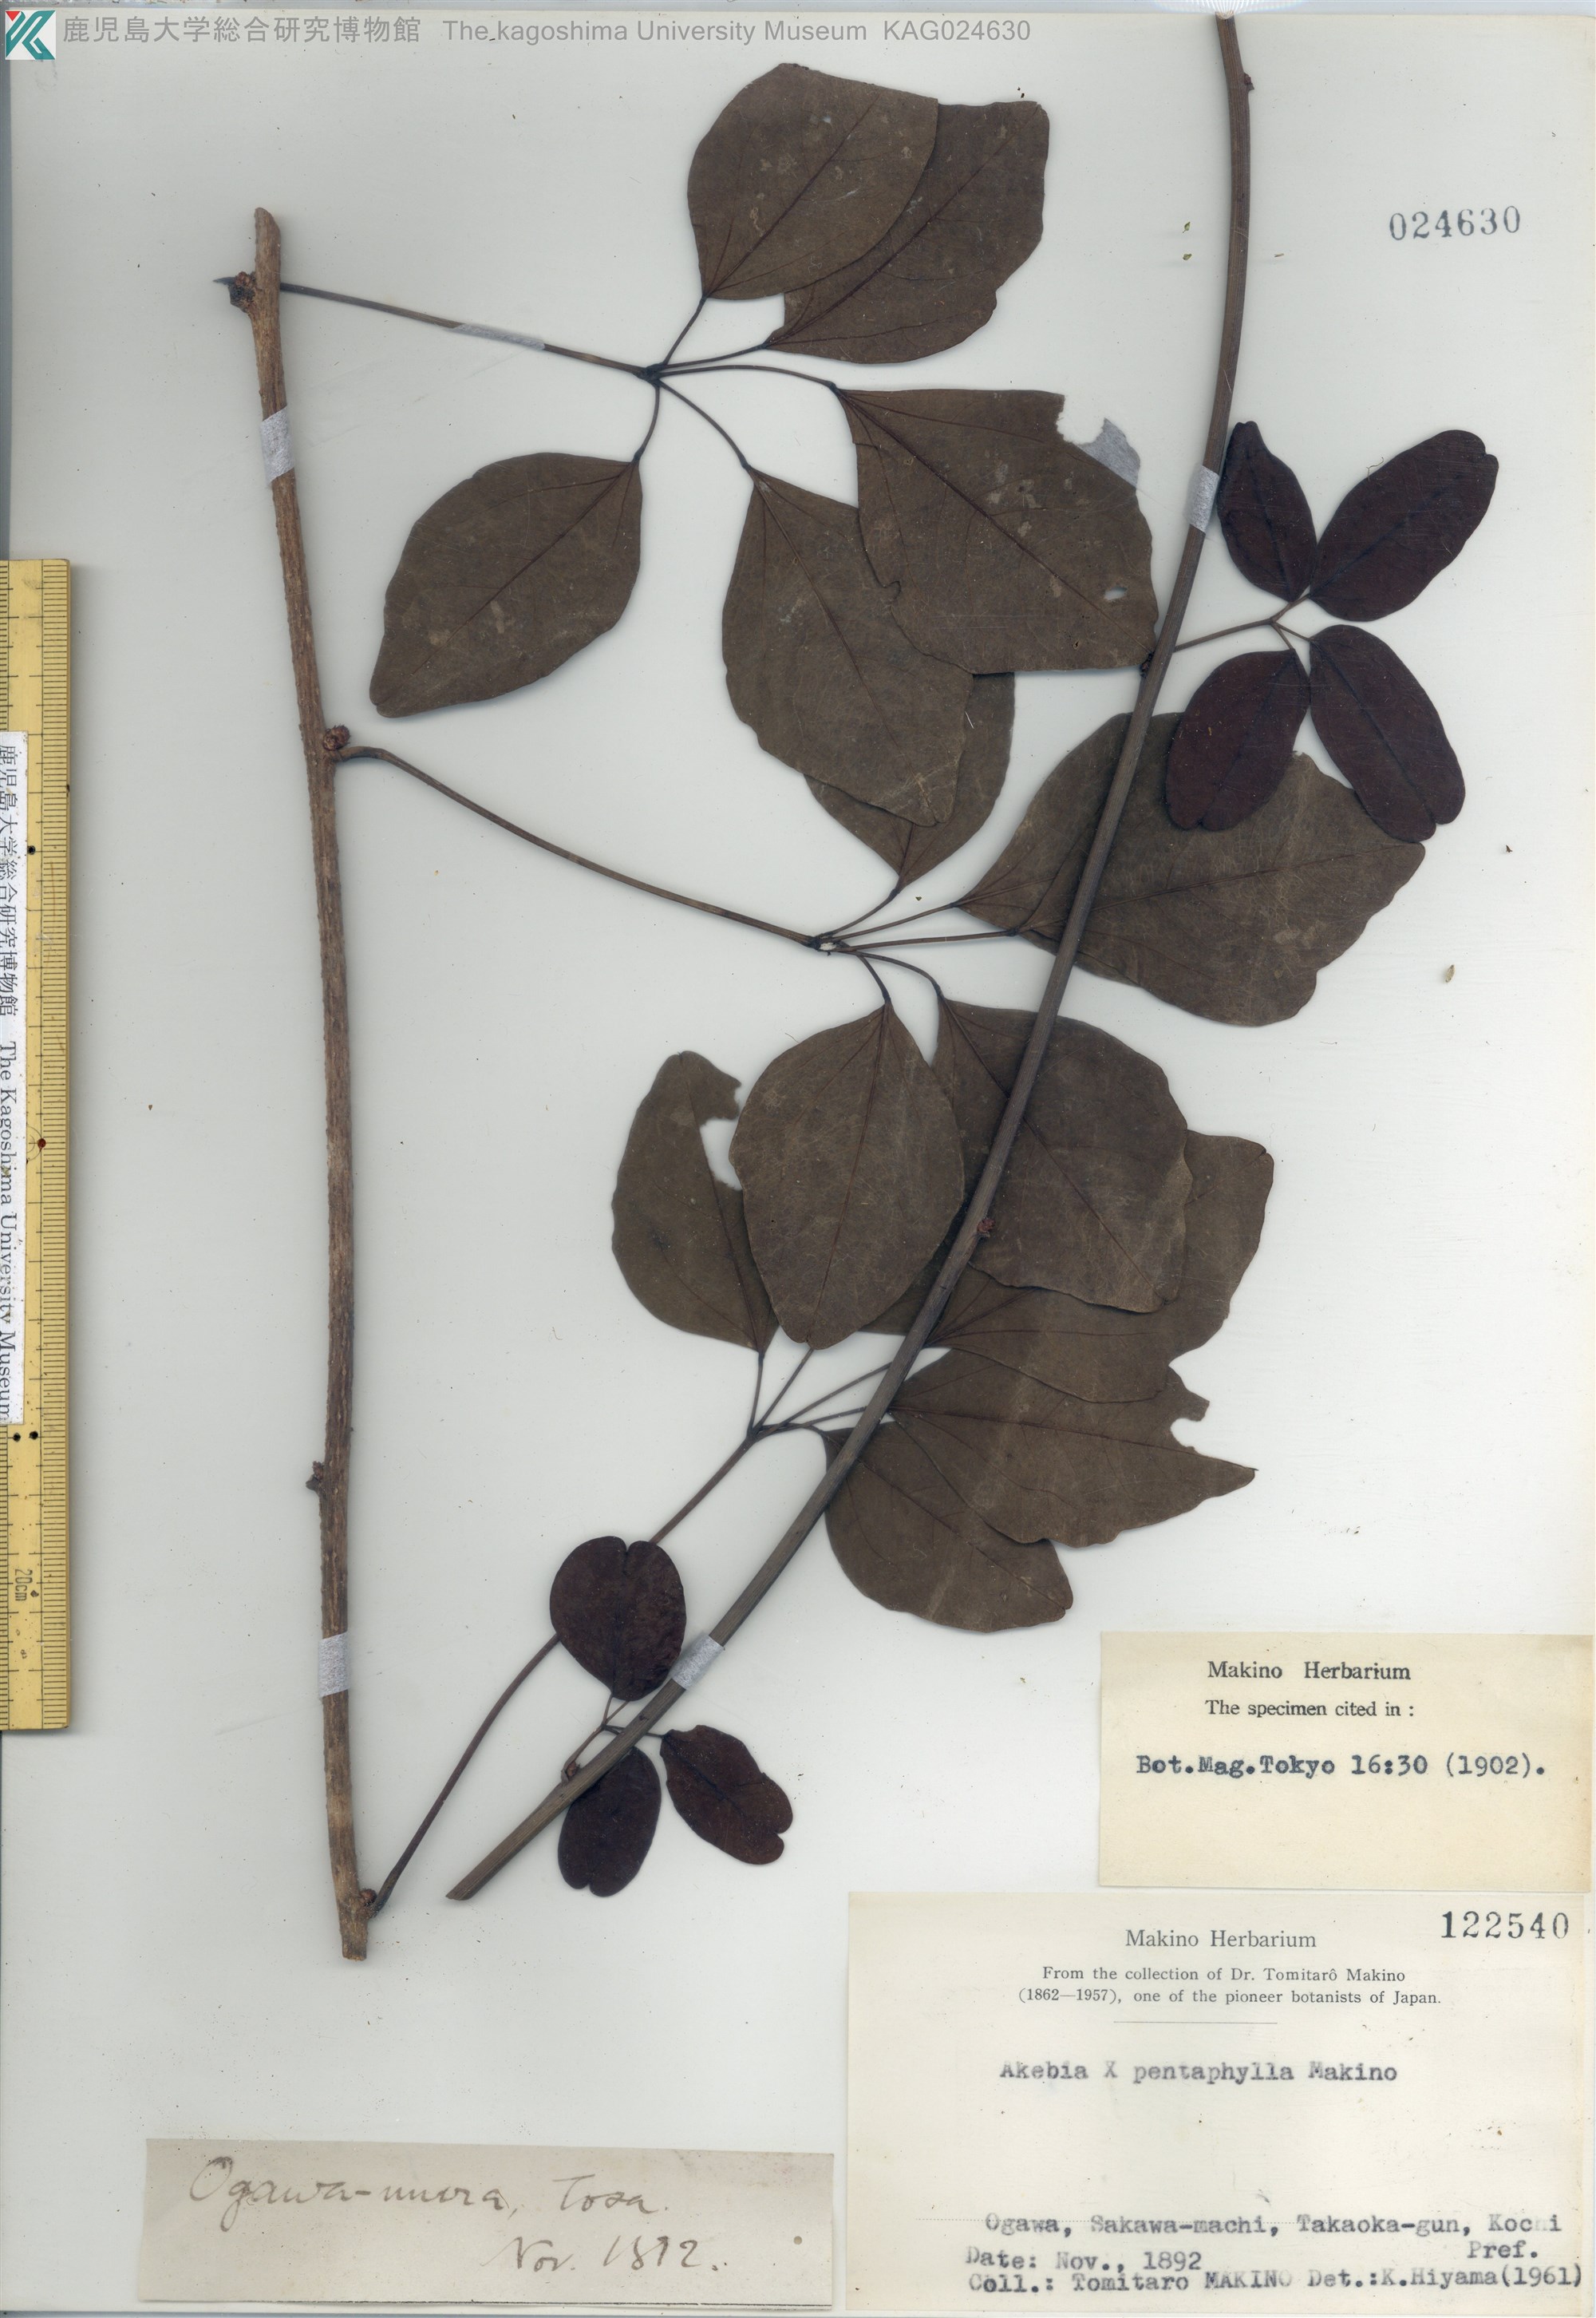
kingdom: Plantae
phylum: Tracheophyta
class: Magnoliopsida
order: Ranunculales
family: Lardizabalaceae
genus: Akebia
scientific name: Akebia pentaphylla
